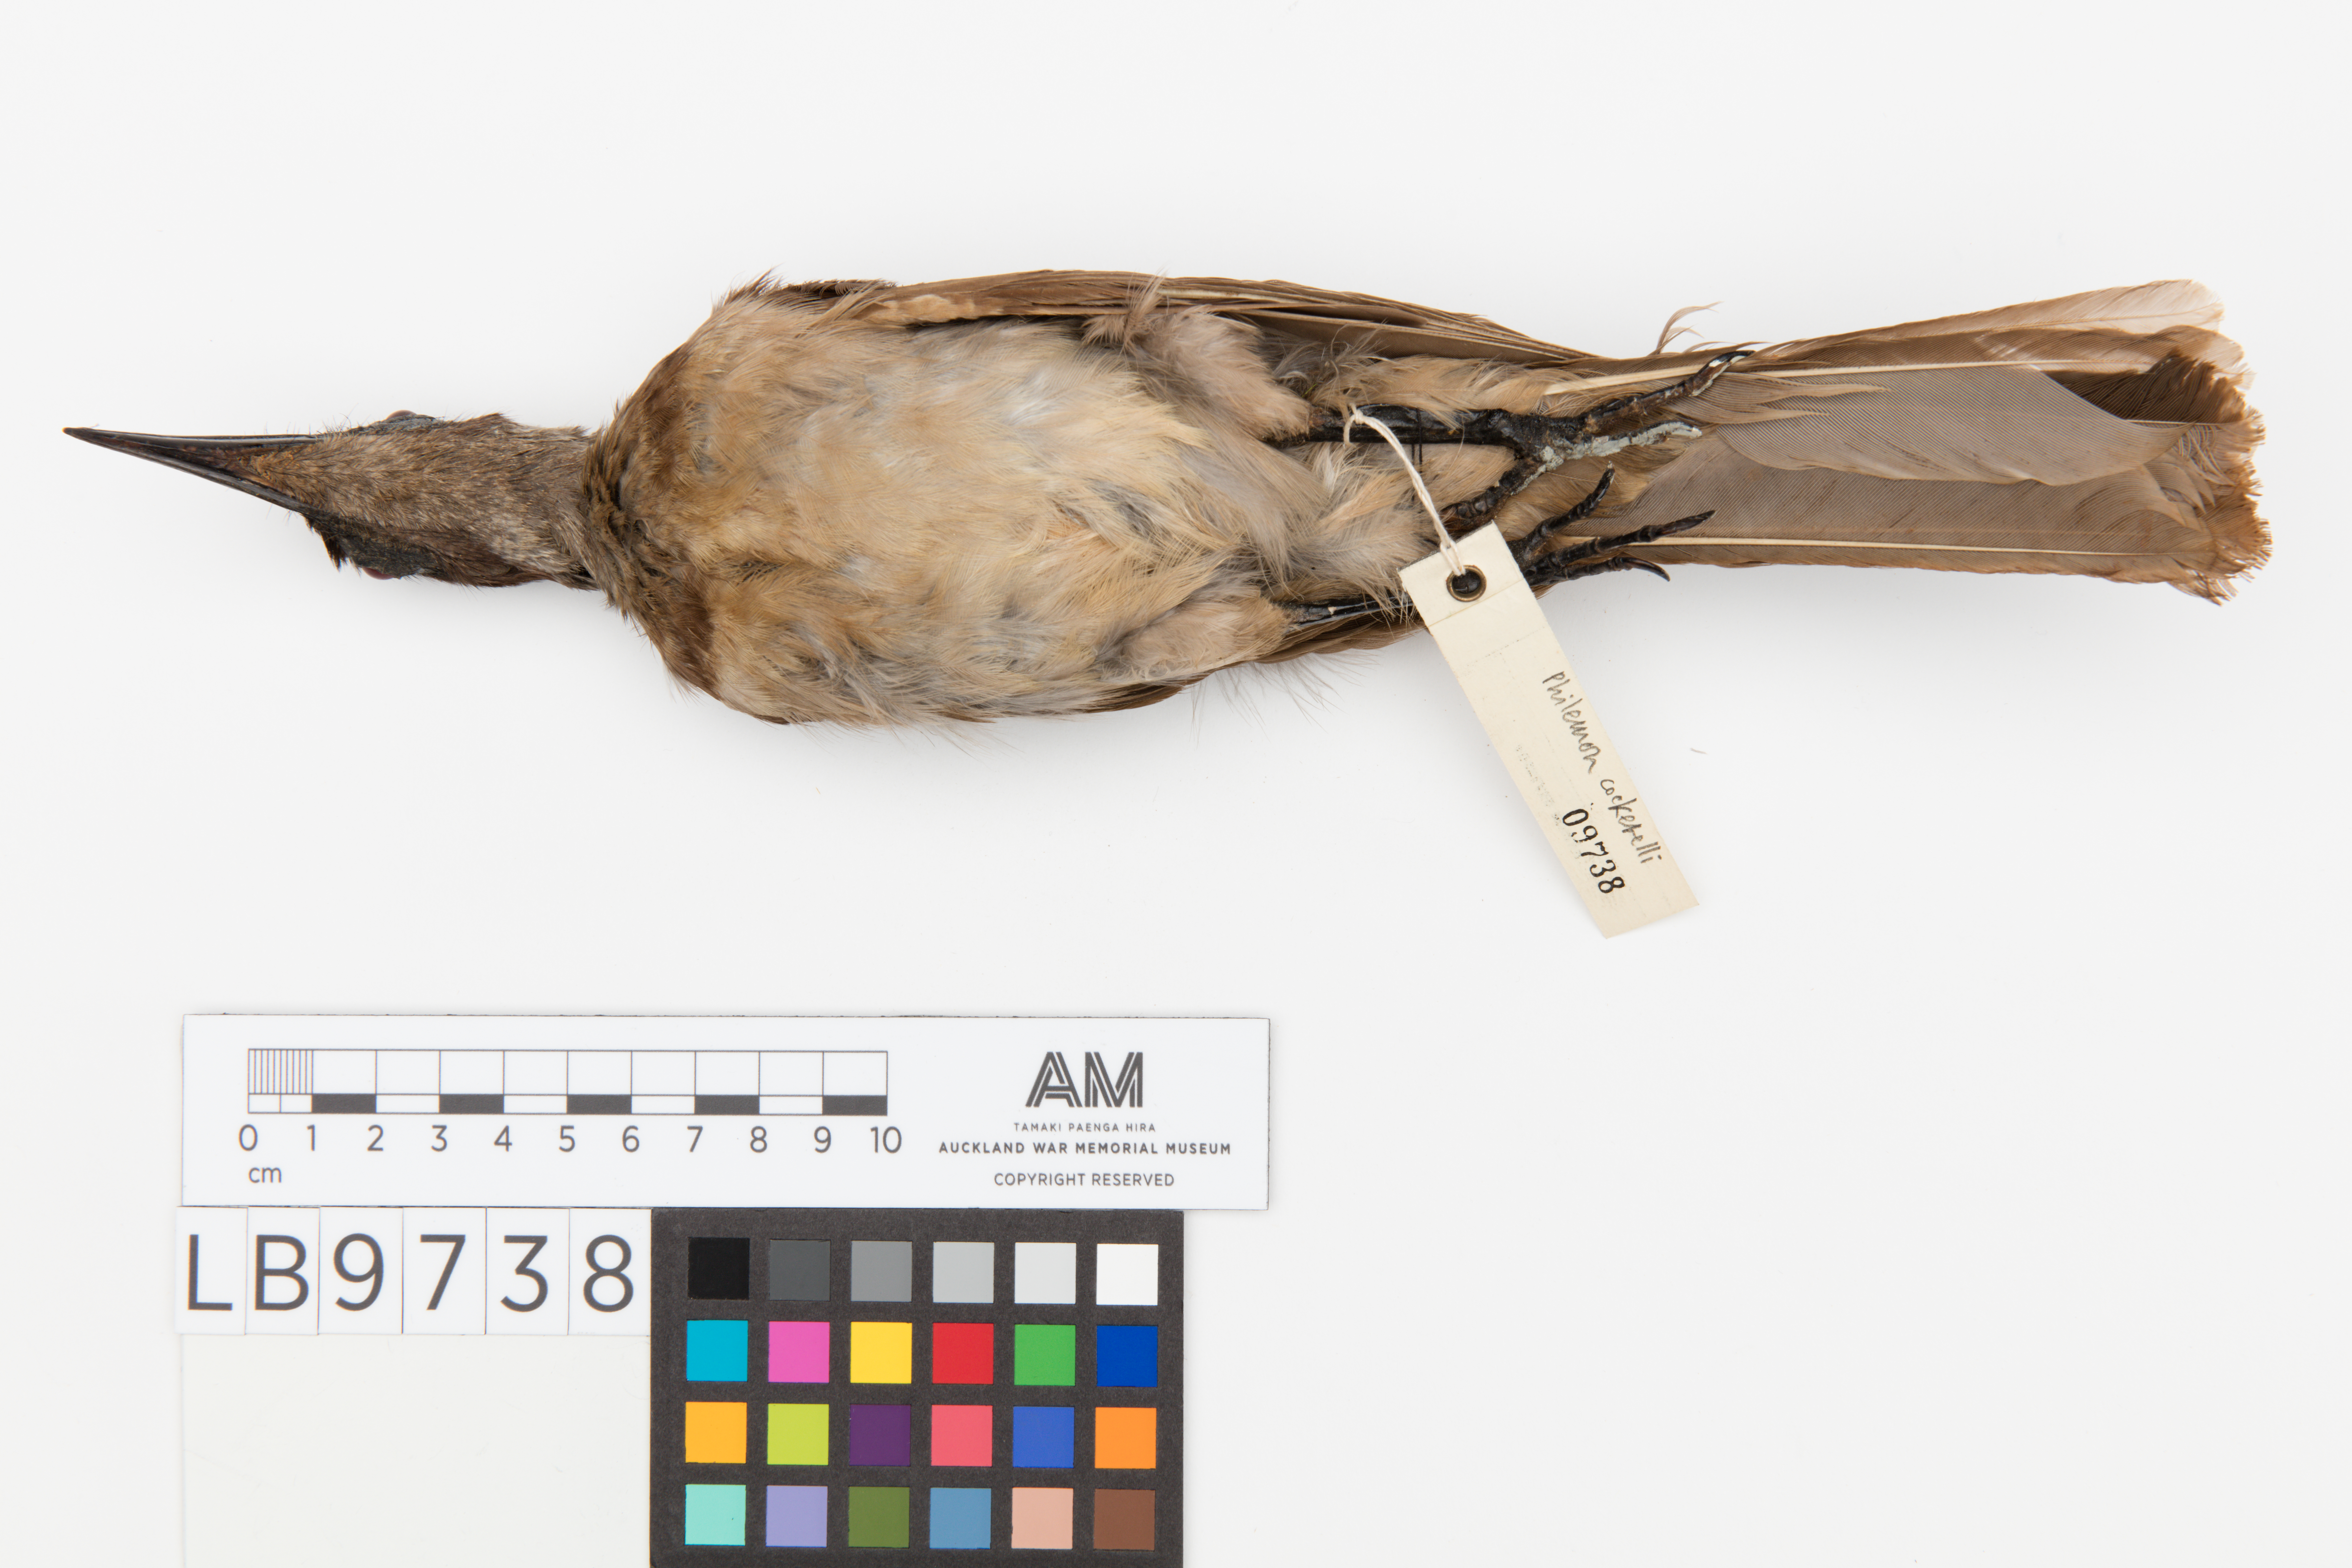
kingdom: Animalia
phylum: Chordata
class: Aves
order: Passeriformes
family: Meliphagidae
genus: Philemon
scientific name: Philemon cockerelli
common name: New britain friarbird
